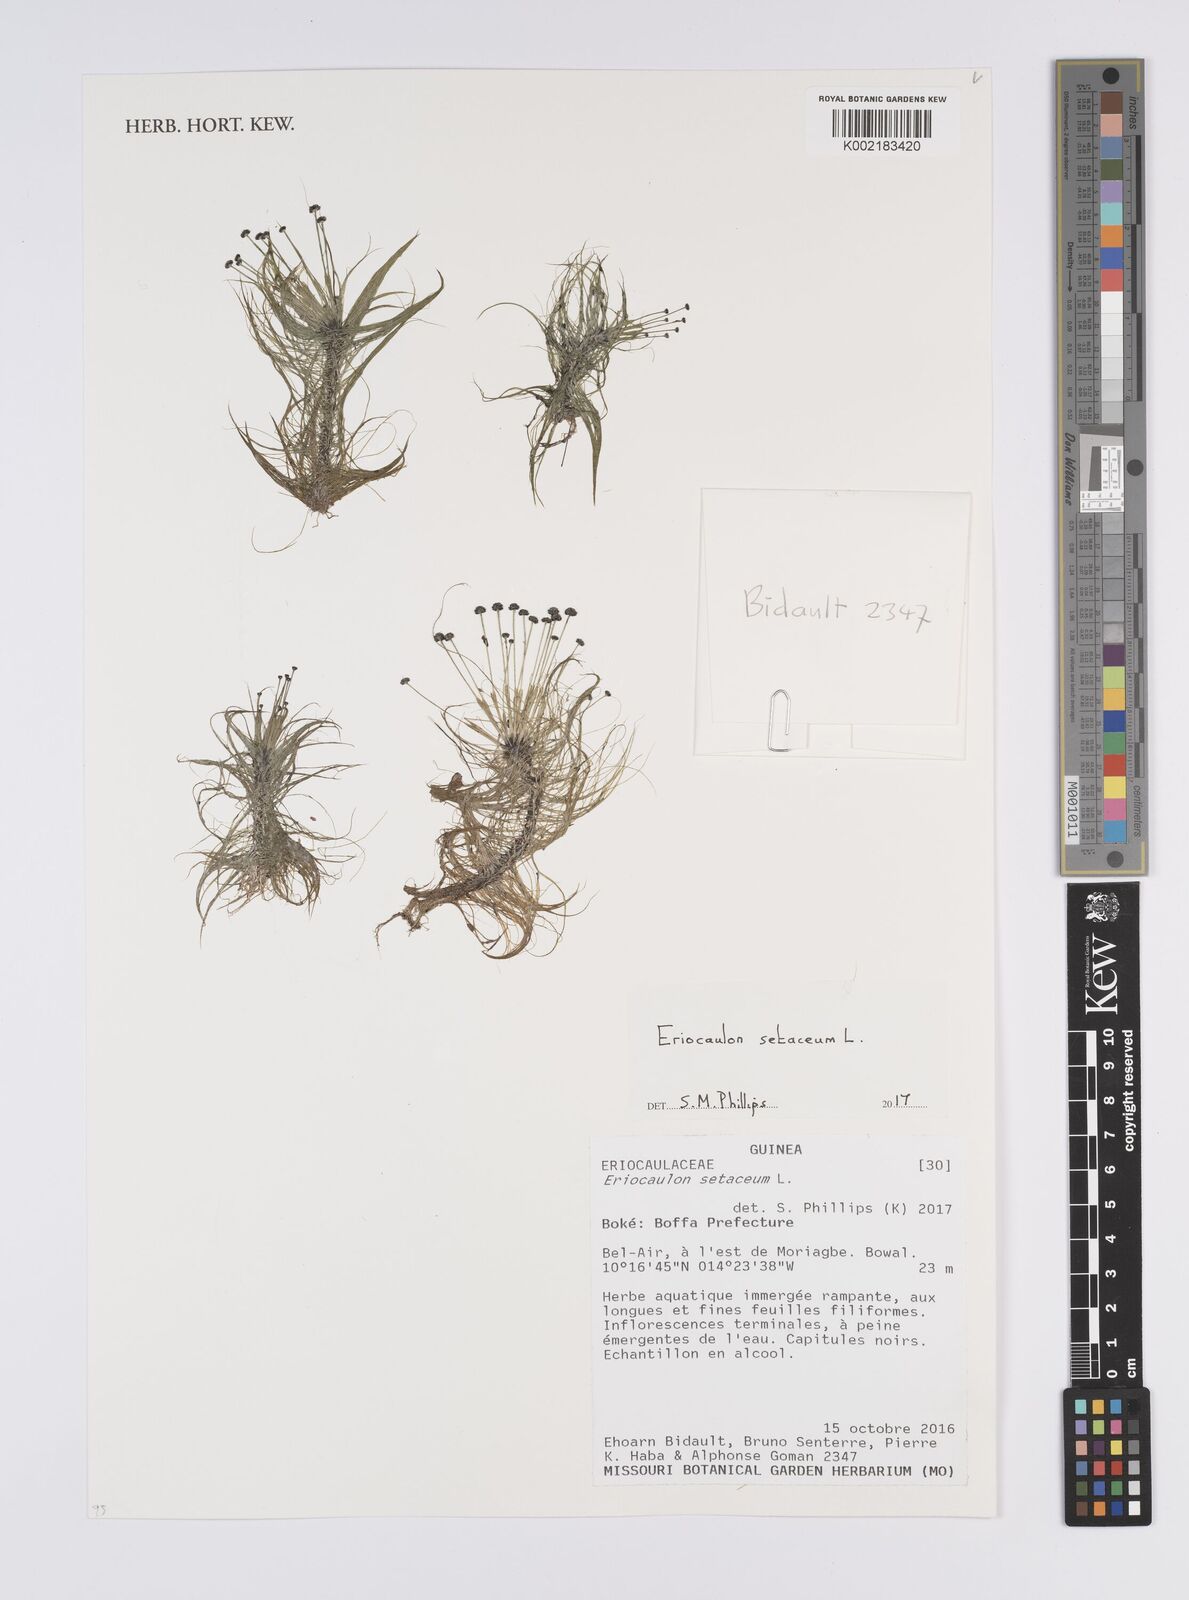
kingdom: Plantae
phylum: Tracheophyta
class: Liliopsida
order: Poales
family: Eriocaulaceae
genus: Eriocaulon
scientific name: Eriocaulon setaceum
